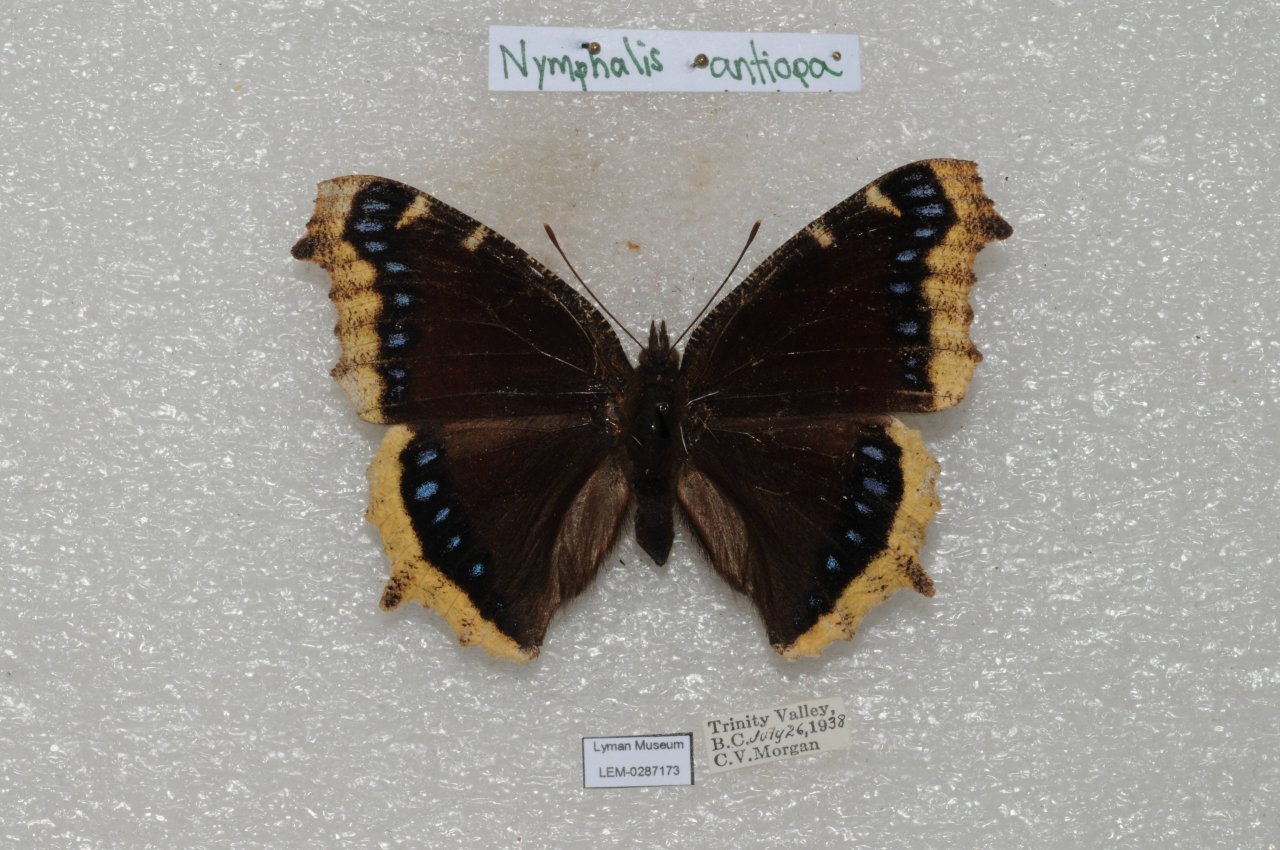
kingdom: Animalia
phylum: Arthropoda
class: Insecta
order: Lepidoptera
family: Nymphalidae
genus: Nymphalis
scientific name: Nymphalis antiopa
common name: Mourning Cloak
